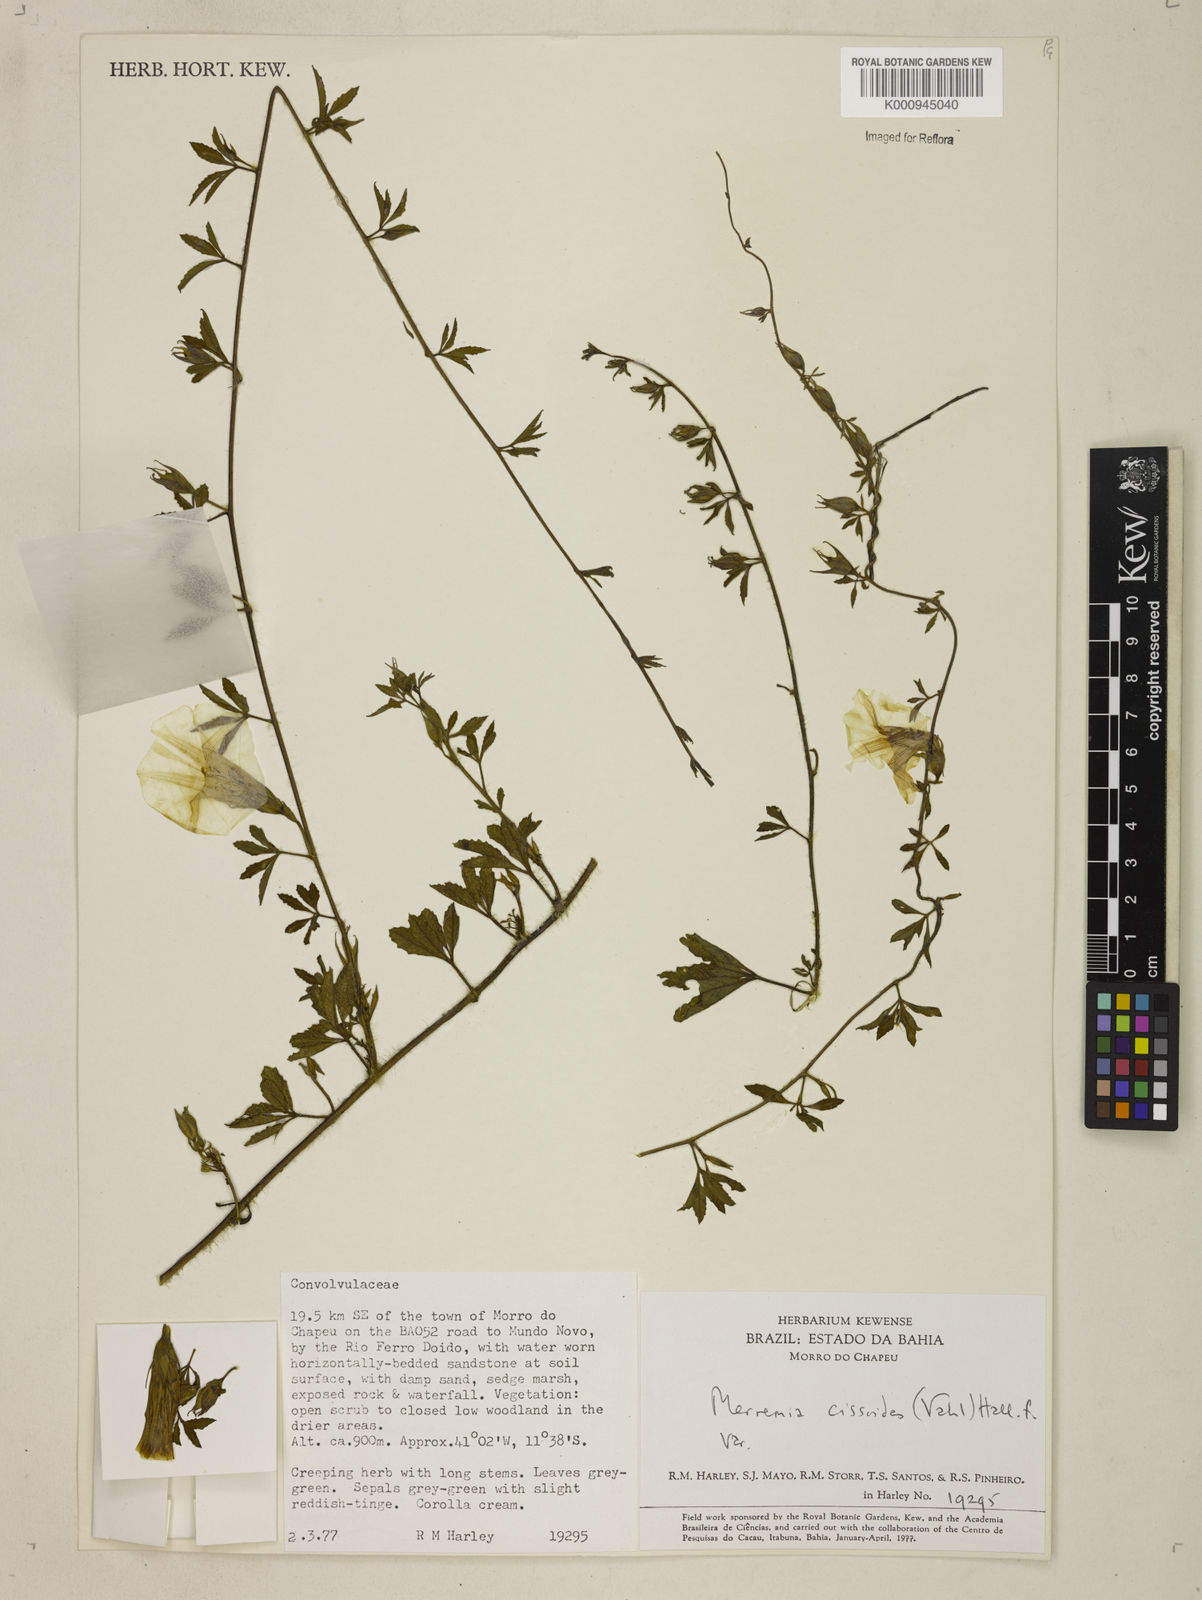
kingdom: Plantae
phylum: Tracheophyta
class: Magnoliopsida
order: Solanales
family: Convolvulaceae
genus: Distimake
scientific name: Distimake cissoides
